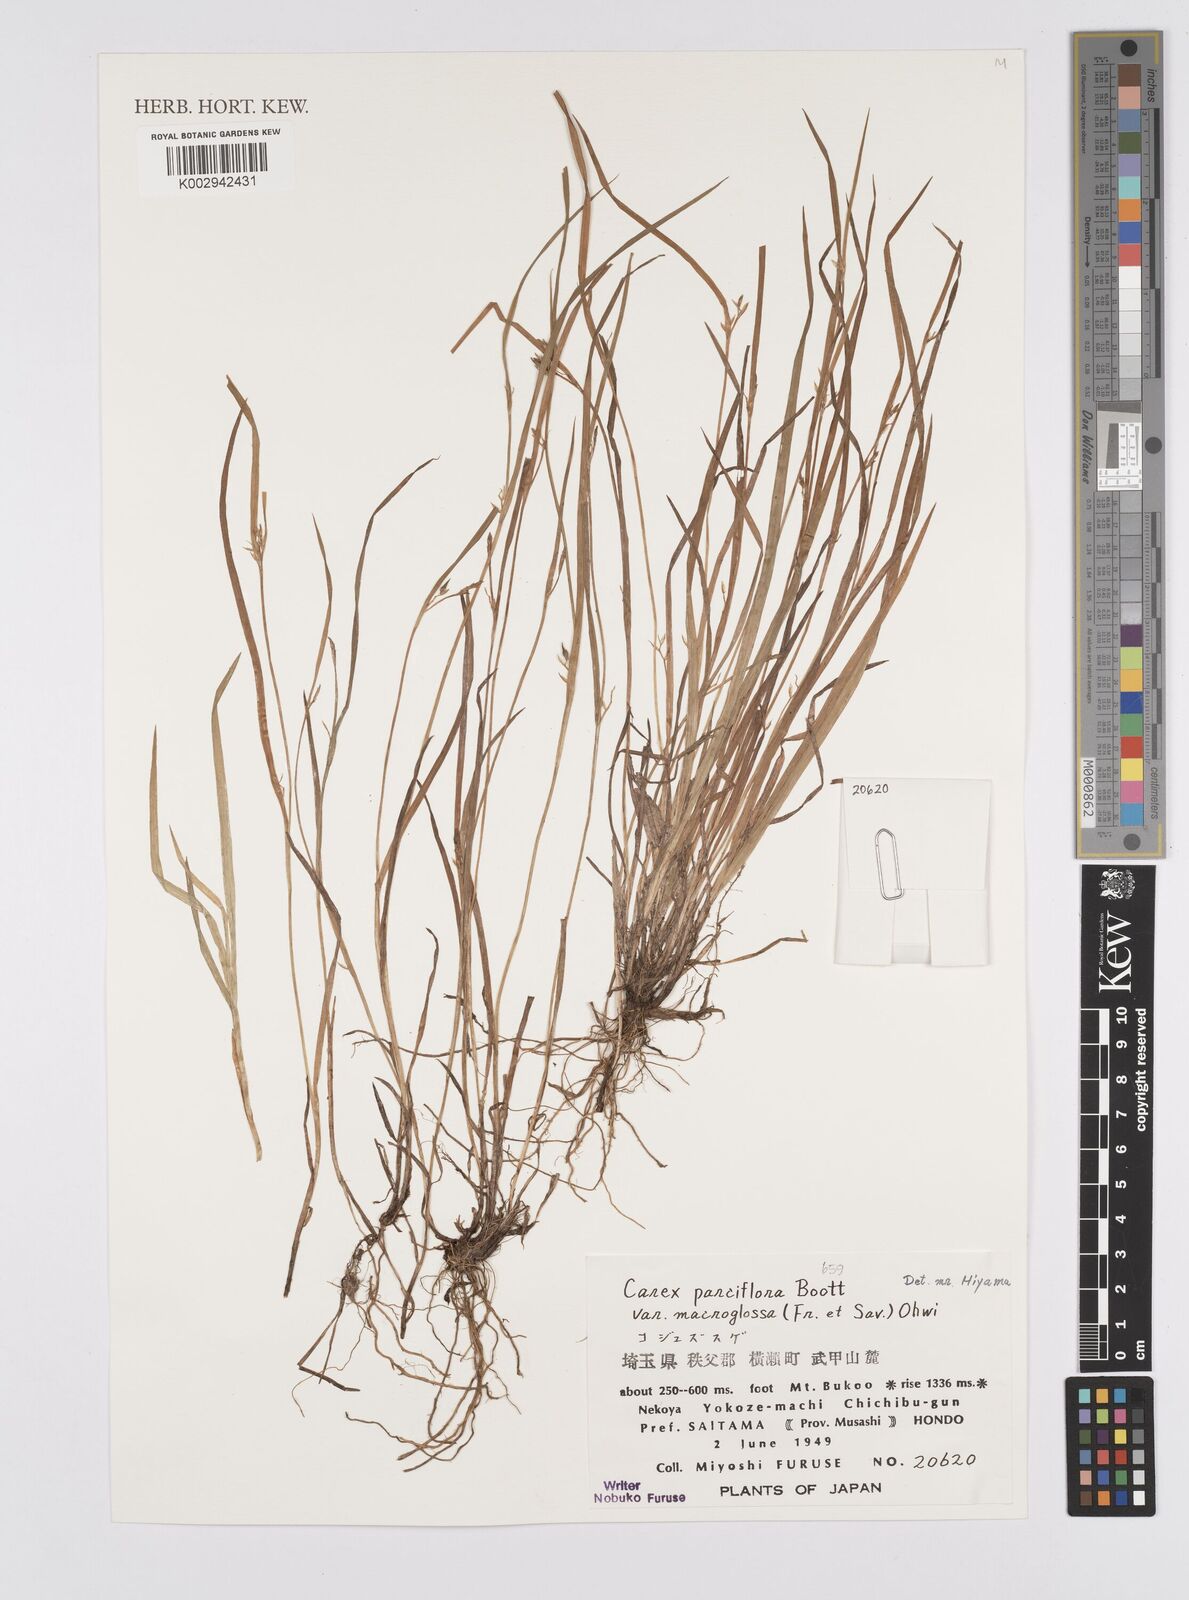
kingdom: Plantae
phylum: Tracheophyta
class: Liliopsida
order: Poales
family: Cyperaceae
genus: Carex
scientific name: Carex jackiana
